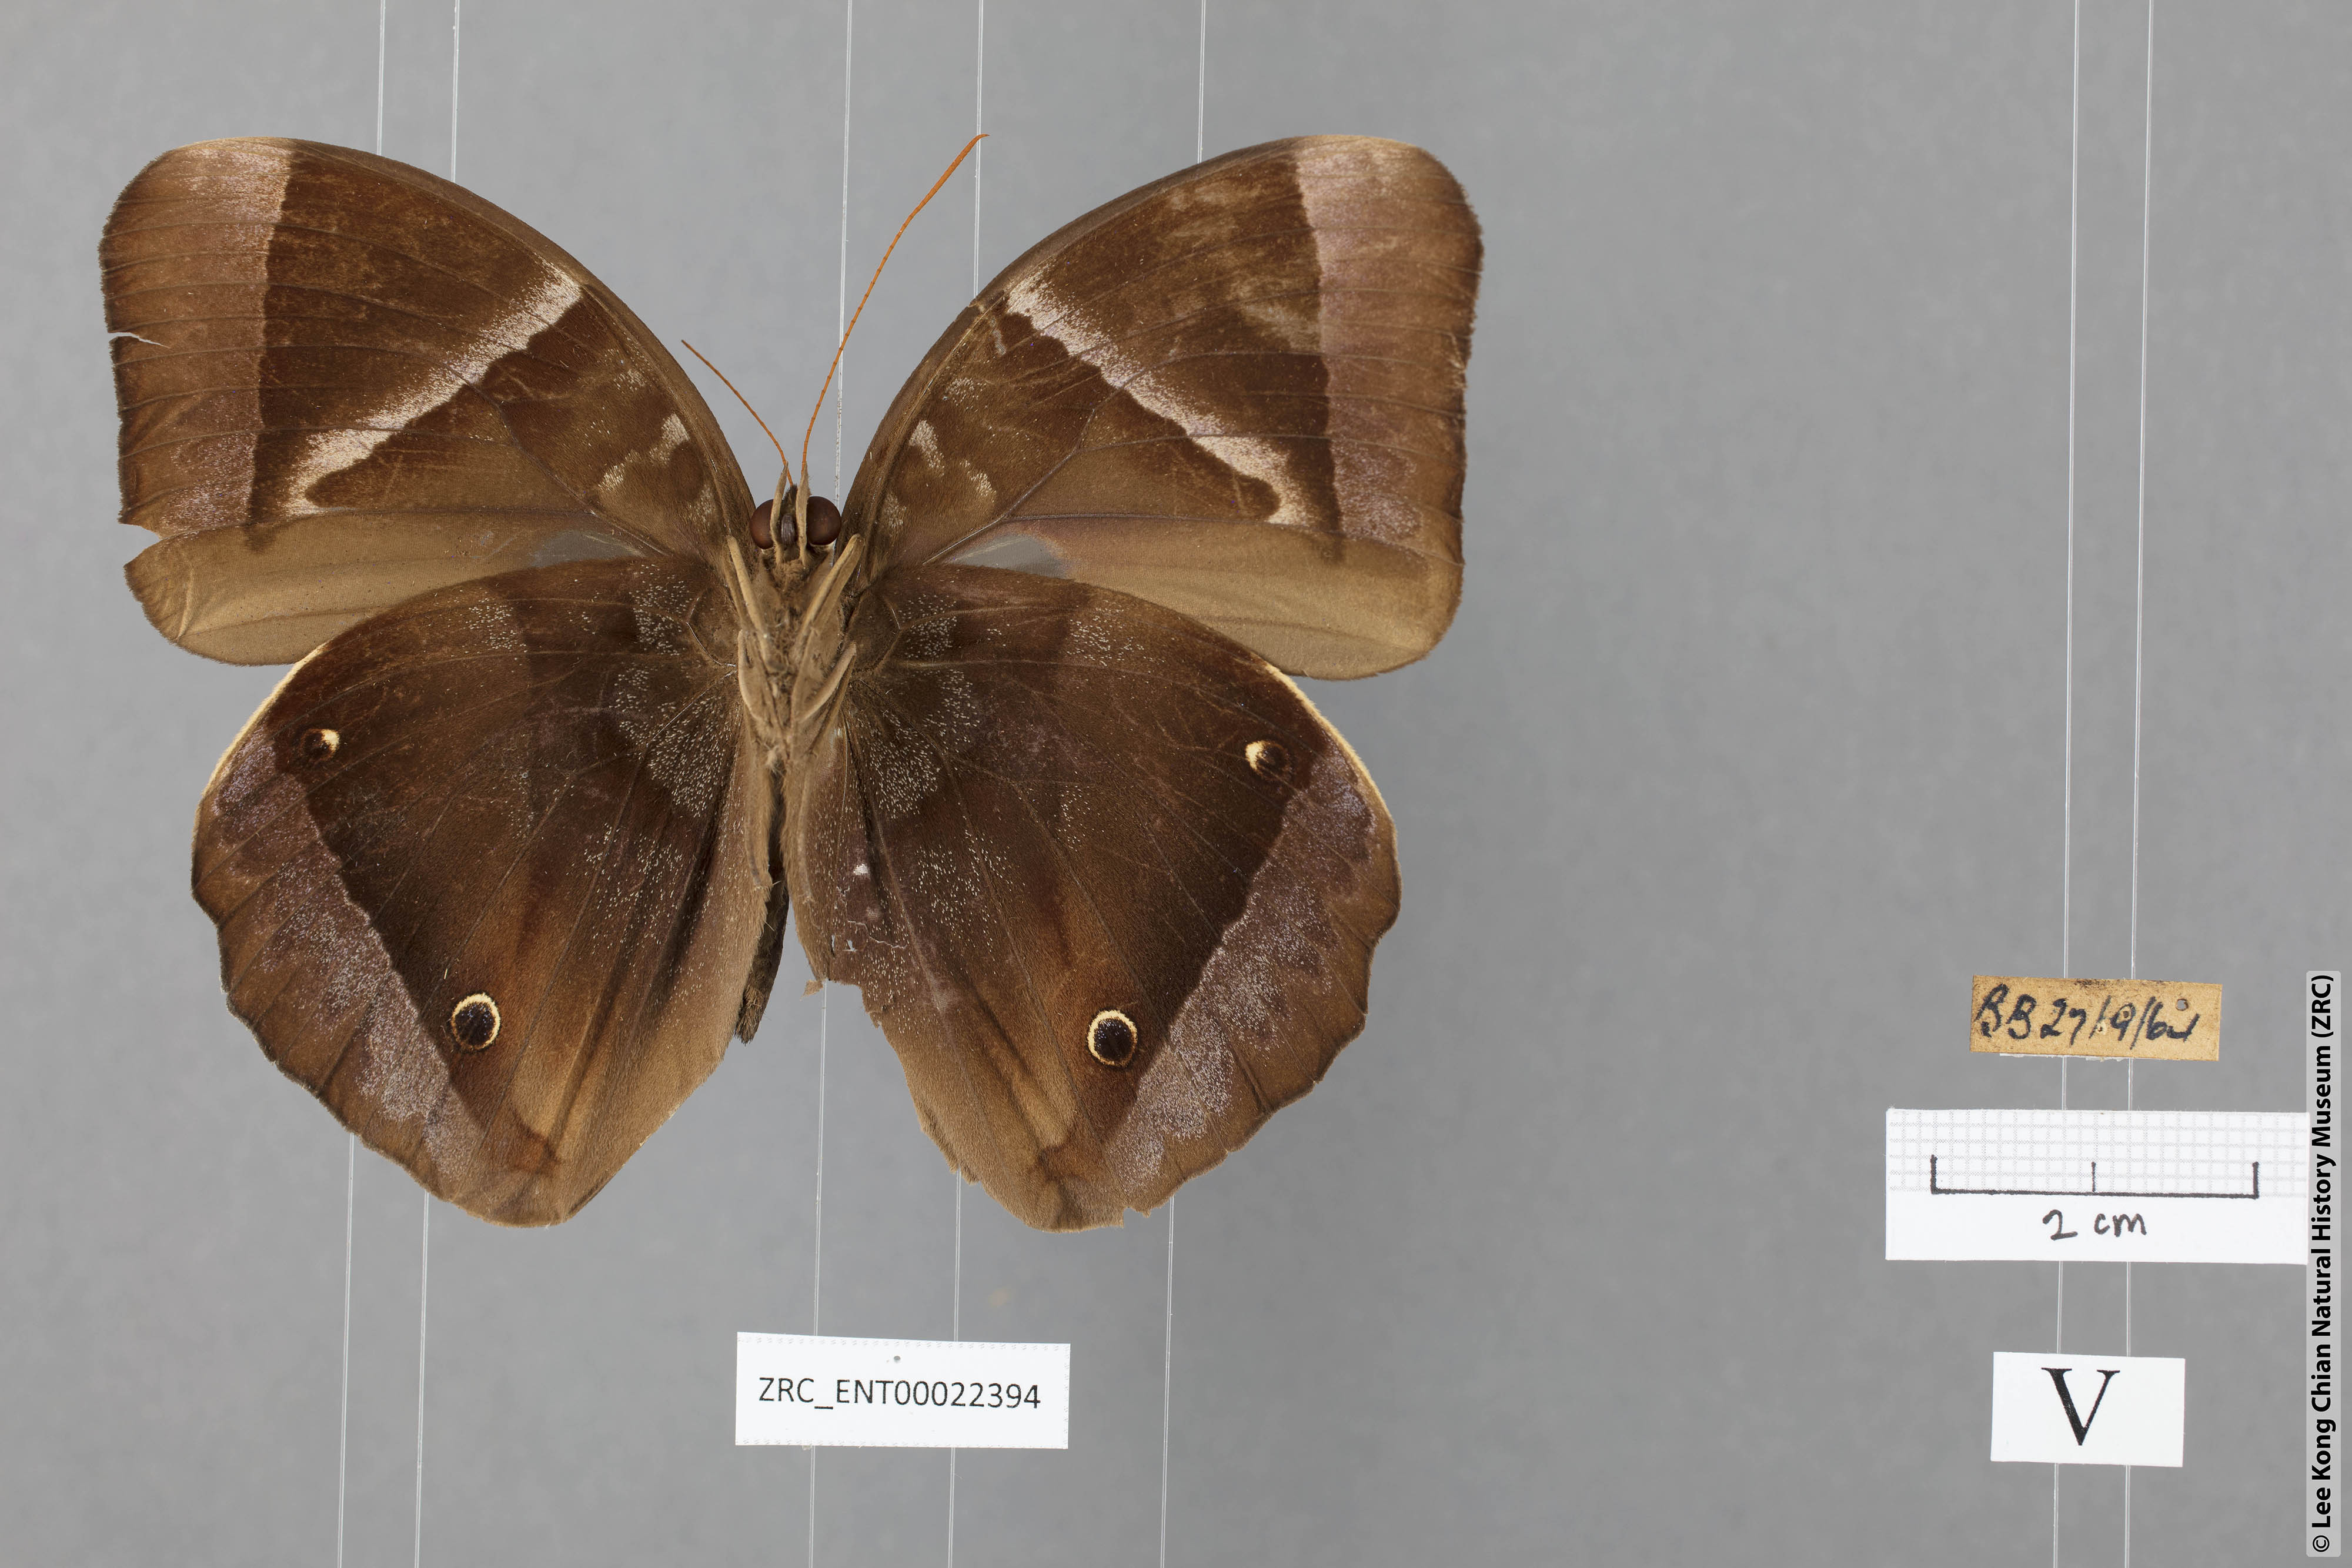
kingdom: Animalia
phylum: Arthropoda
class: Insecta
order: Lepidoptera
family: Nymphalidae
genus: Thaumantis
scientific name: Thaumantis klugius
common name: Dark blue jungle glory
